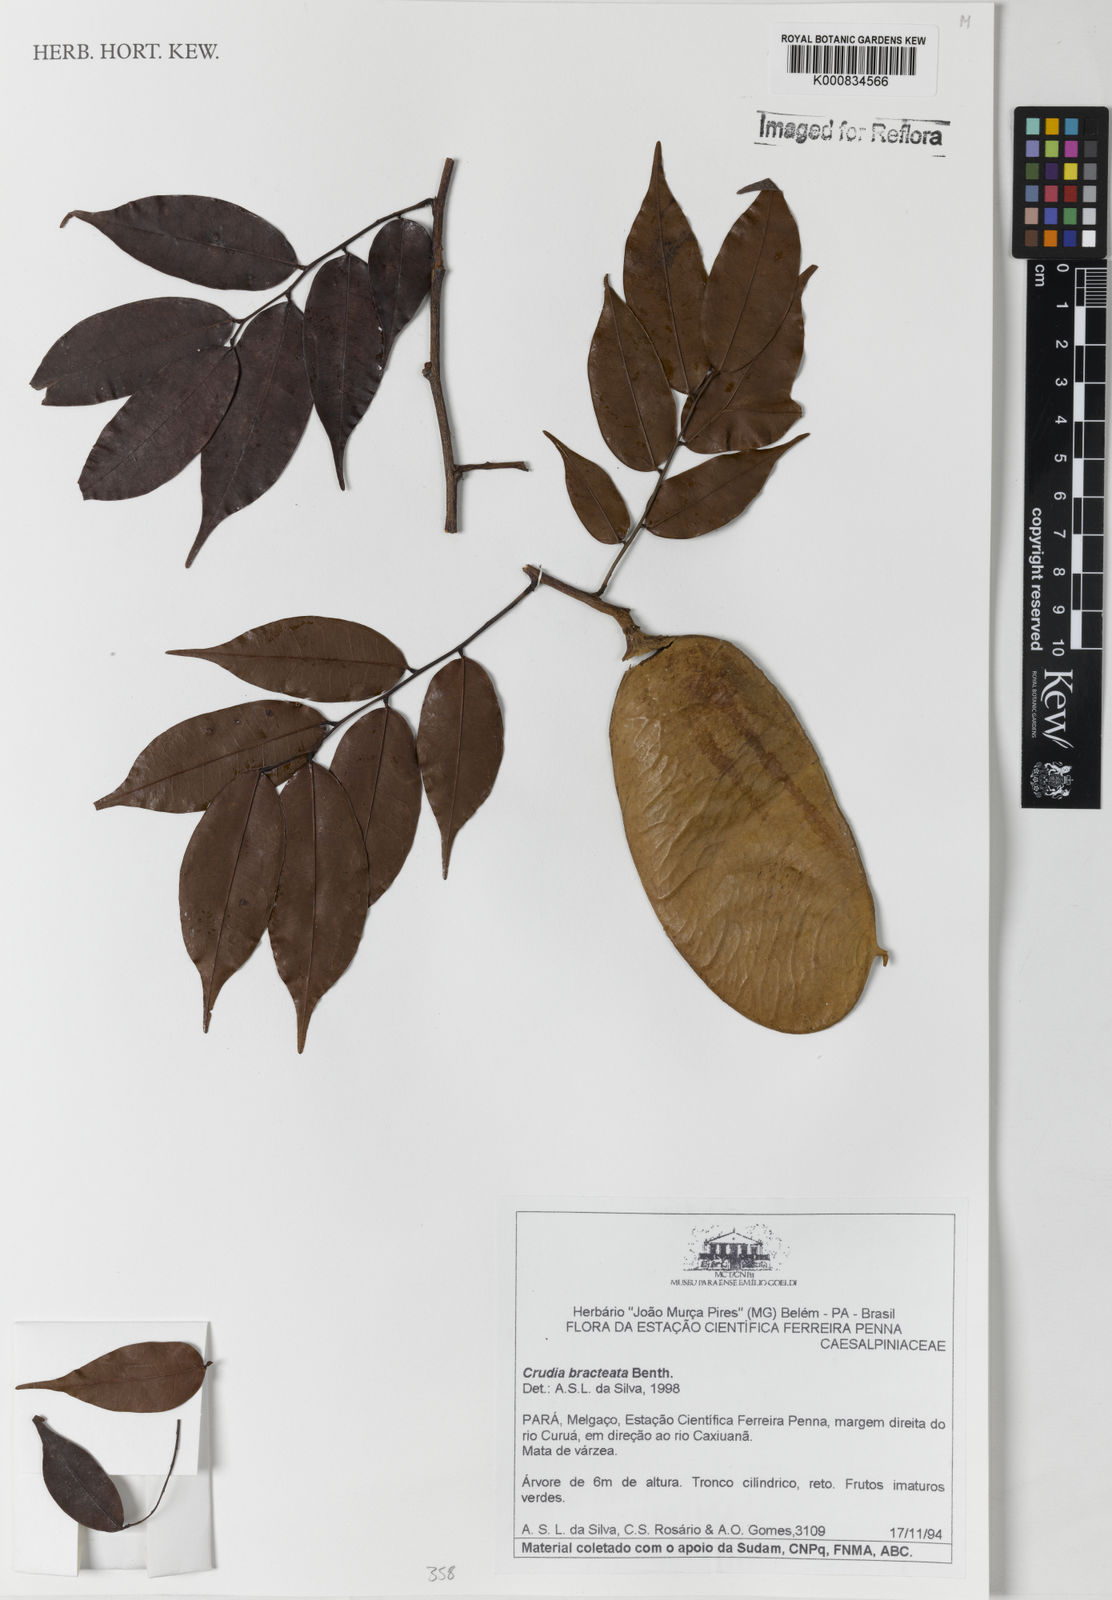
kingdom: Plantae
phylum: Tracheophyta
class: Magnoliopsida
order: Fabales
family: Fabaceae
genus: Crudia
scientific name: Crudia bracteata
